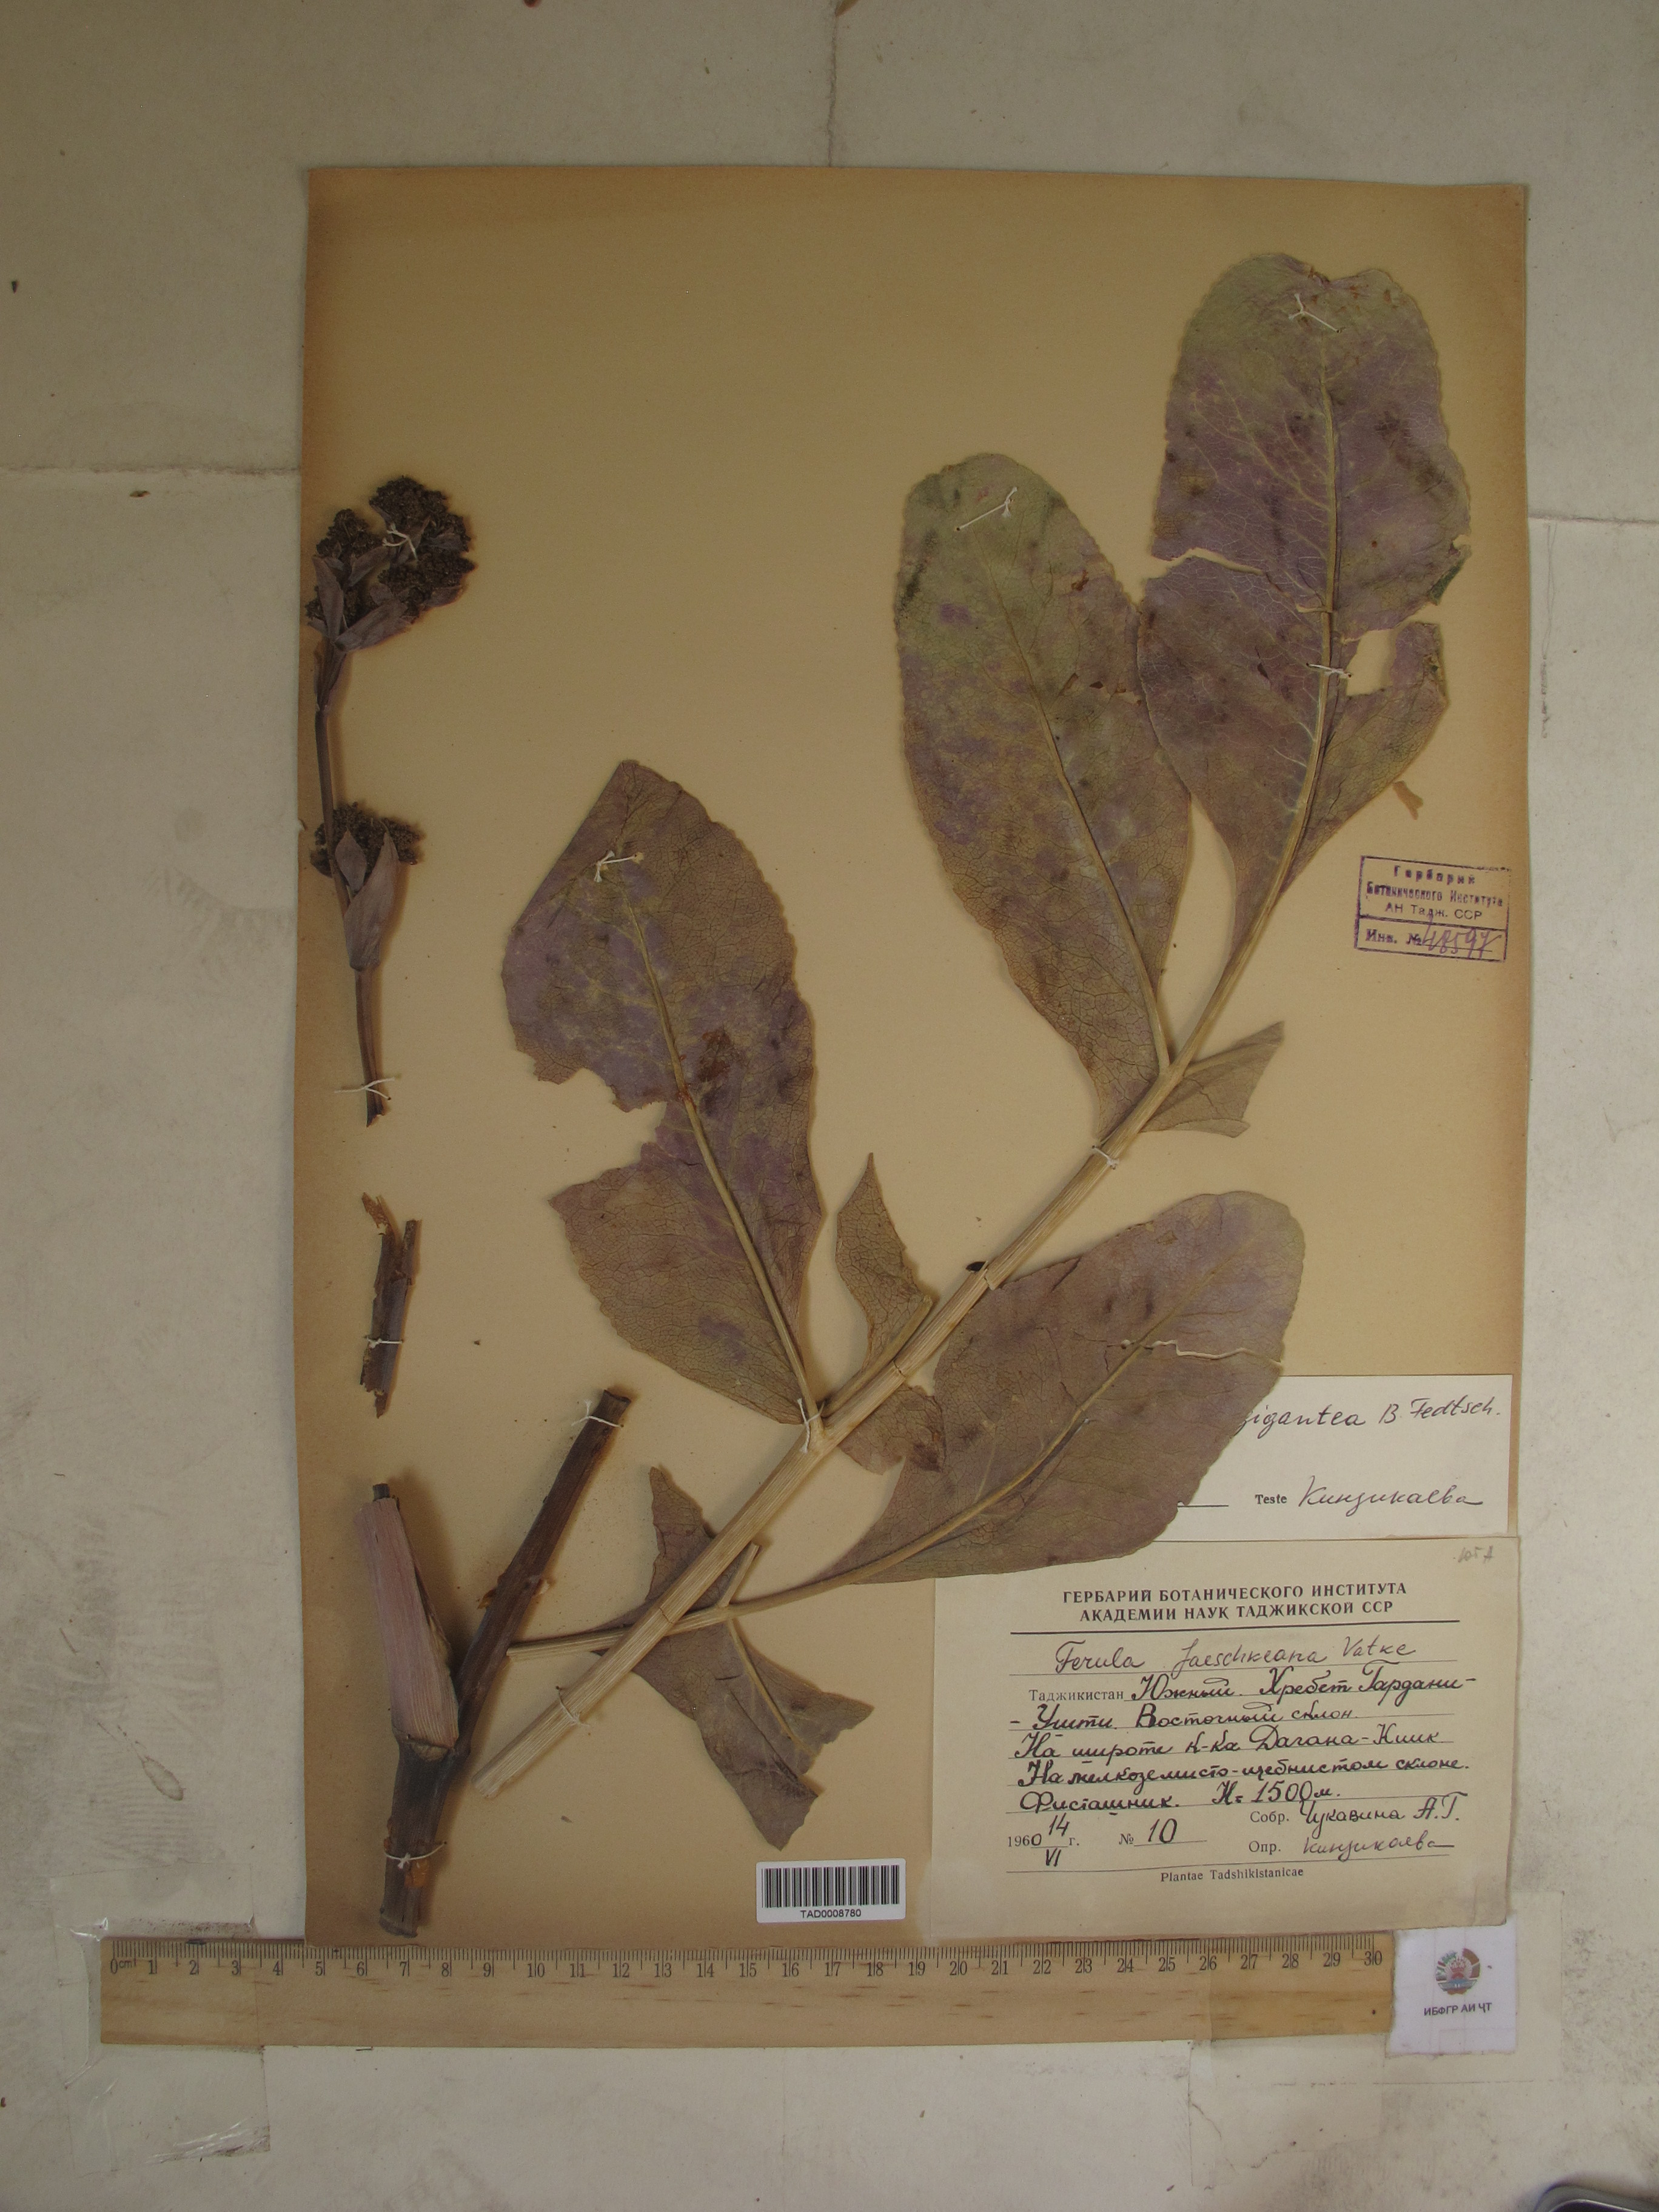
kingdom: Plantae
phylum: Tracheophyta
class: Magnoliopsida
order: Apiales
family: Apiaceae
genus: Ferula
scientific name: Ferula gigantea
